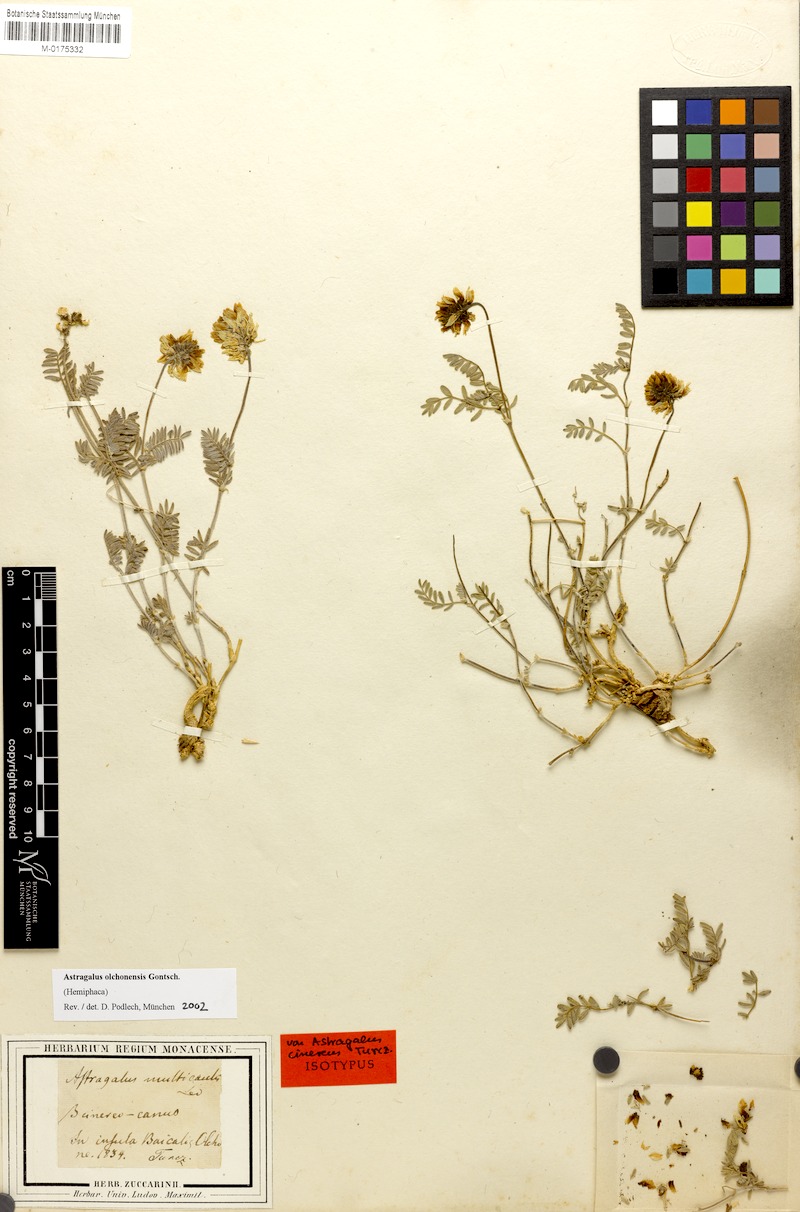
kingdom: Plantae
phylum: Tracheophyta
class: Magnoliopsida
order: Fabales
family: Fabaceae
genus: Astragalus
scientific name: Astragalus olchonensis
